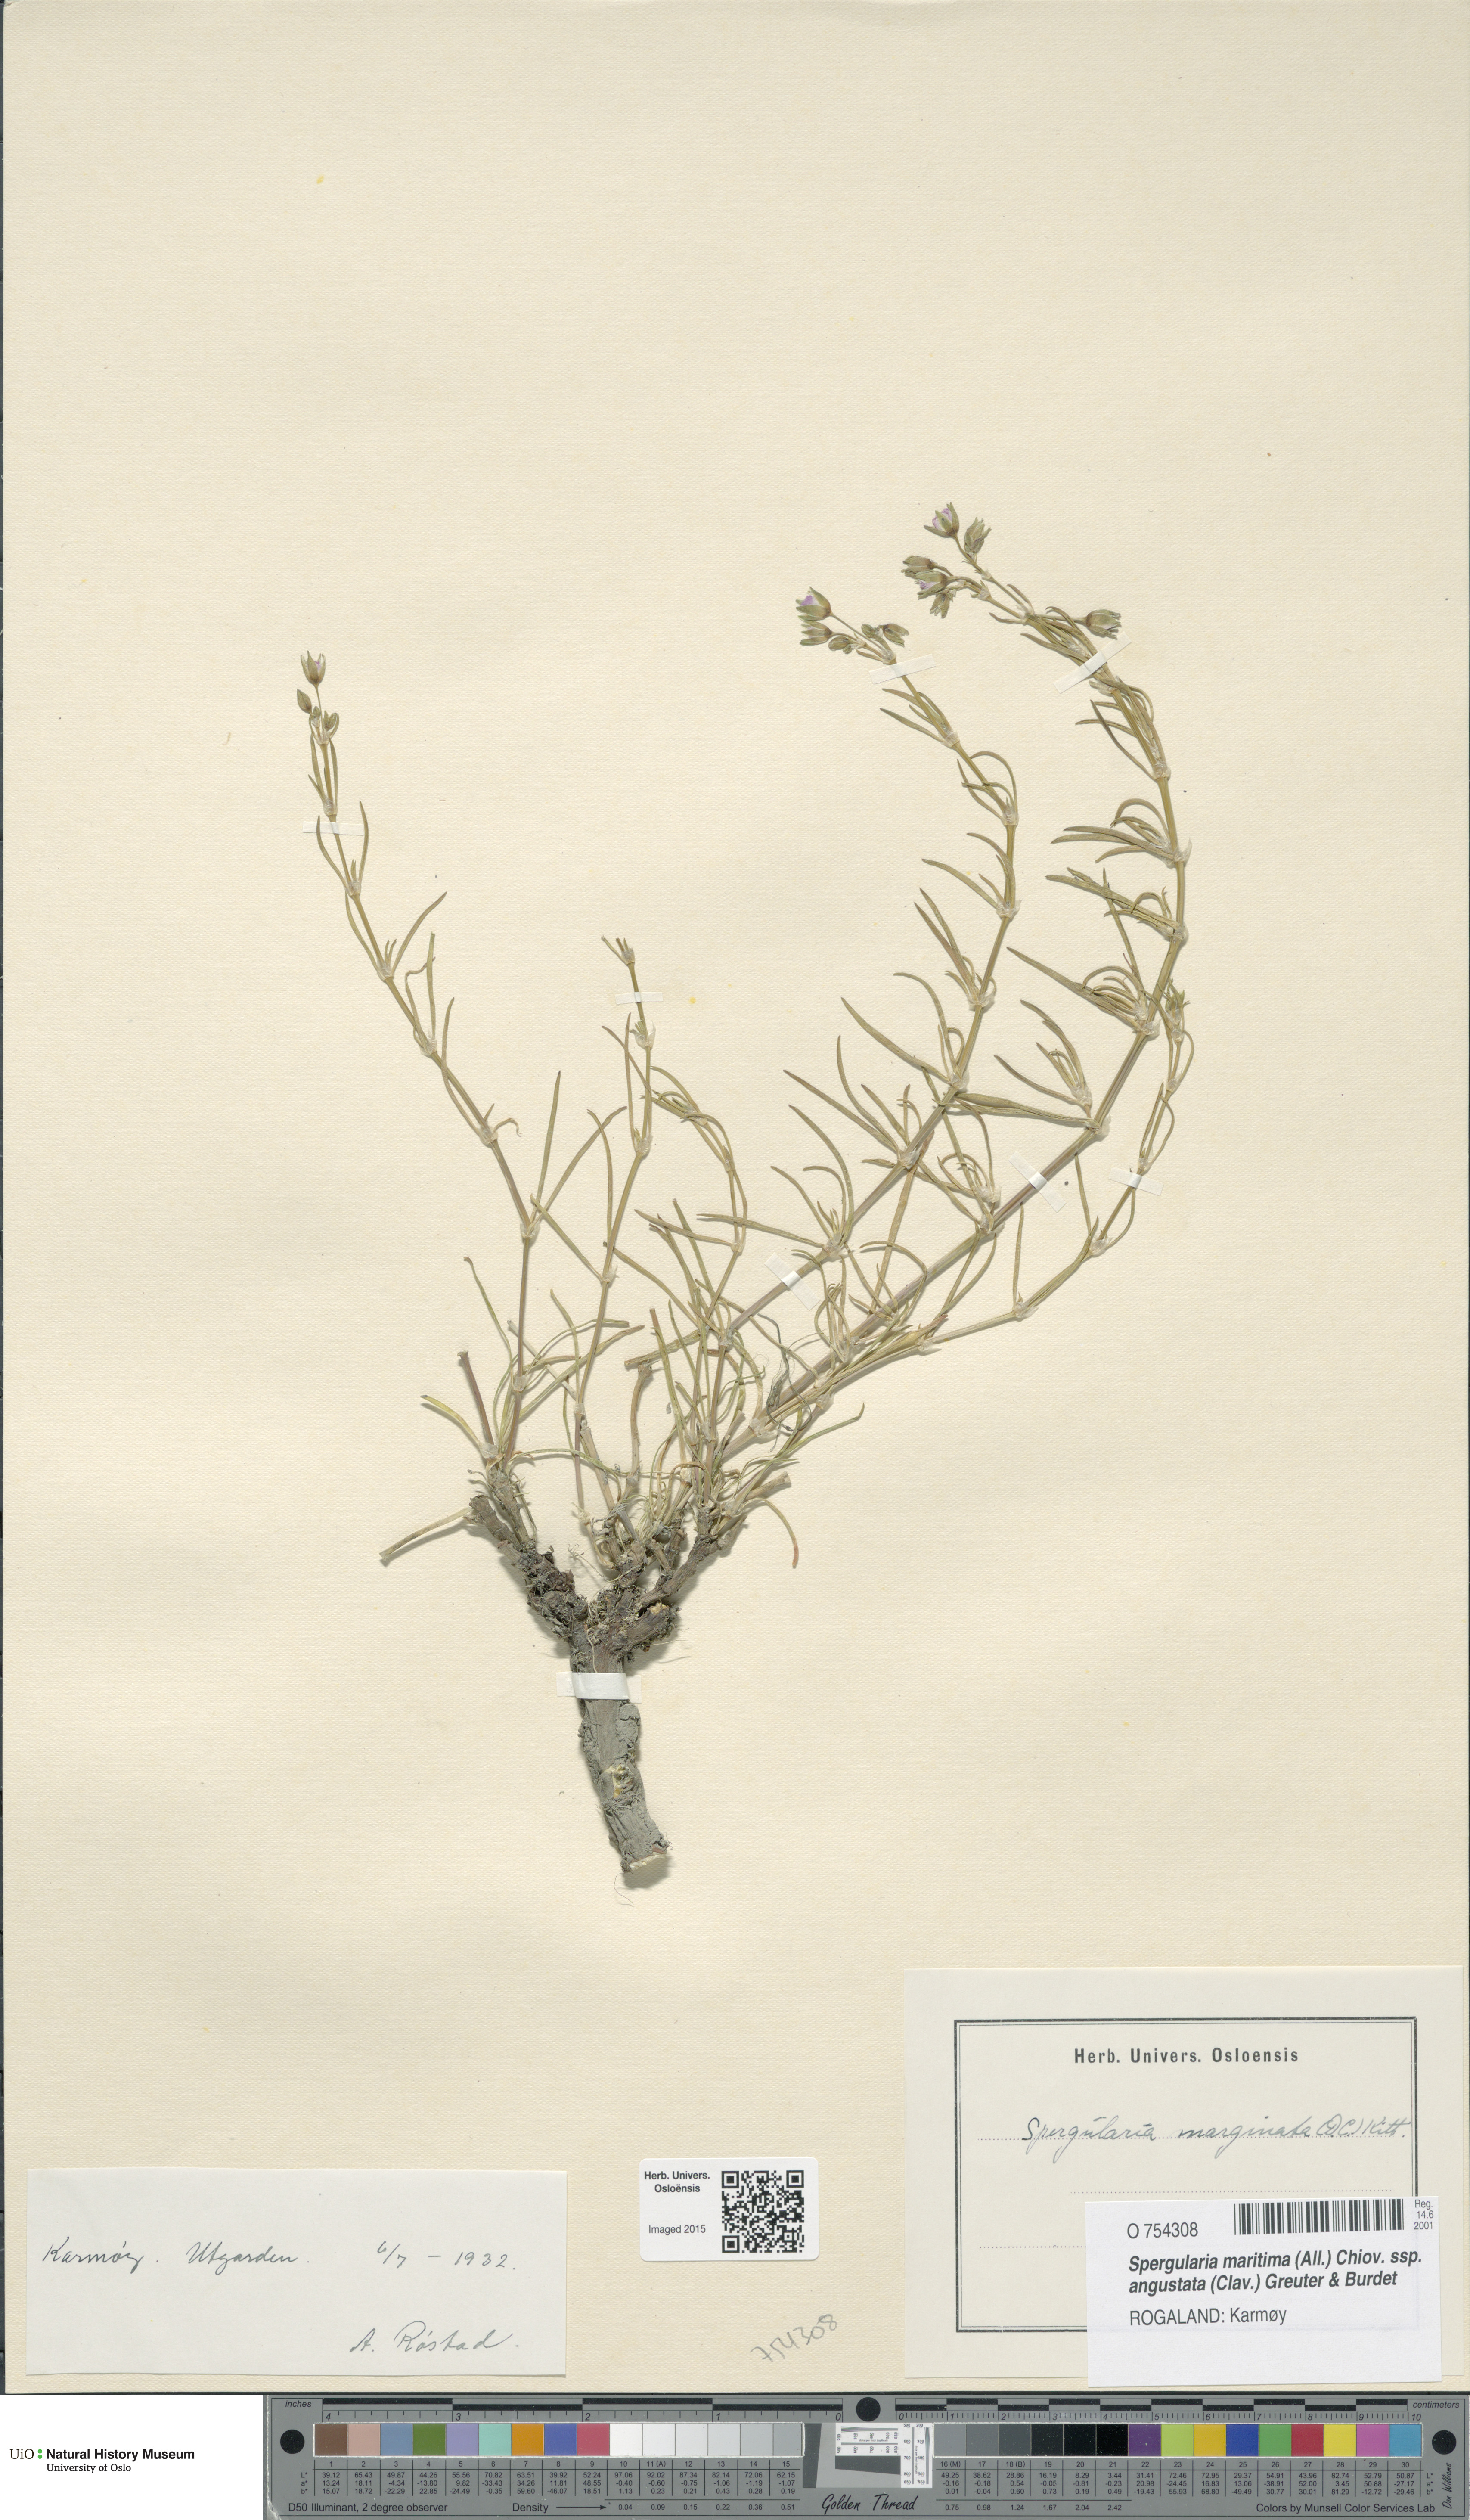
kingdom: Plantae
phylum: Tracheophyta
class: Magnoliopsida
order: Caryophyllales
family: Caryophyllaceae
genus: Spergularia
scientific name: Spergularia media
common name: Greater sea-spurrey
